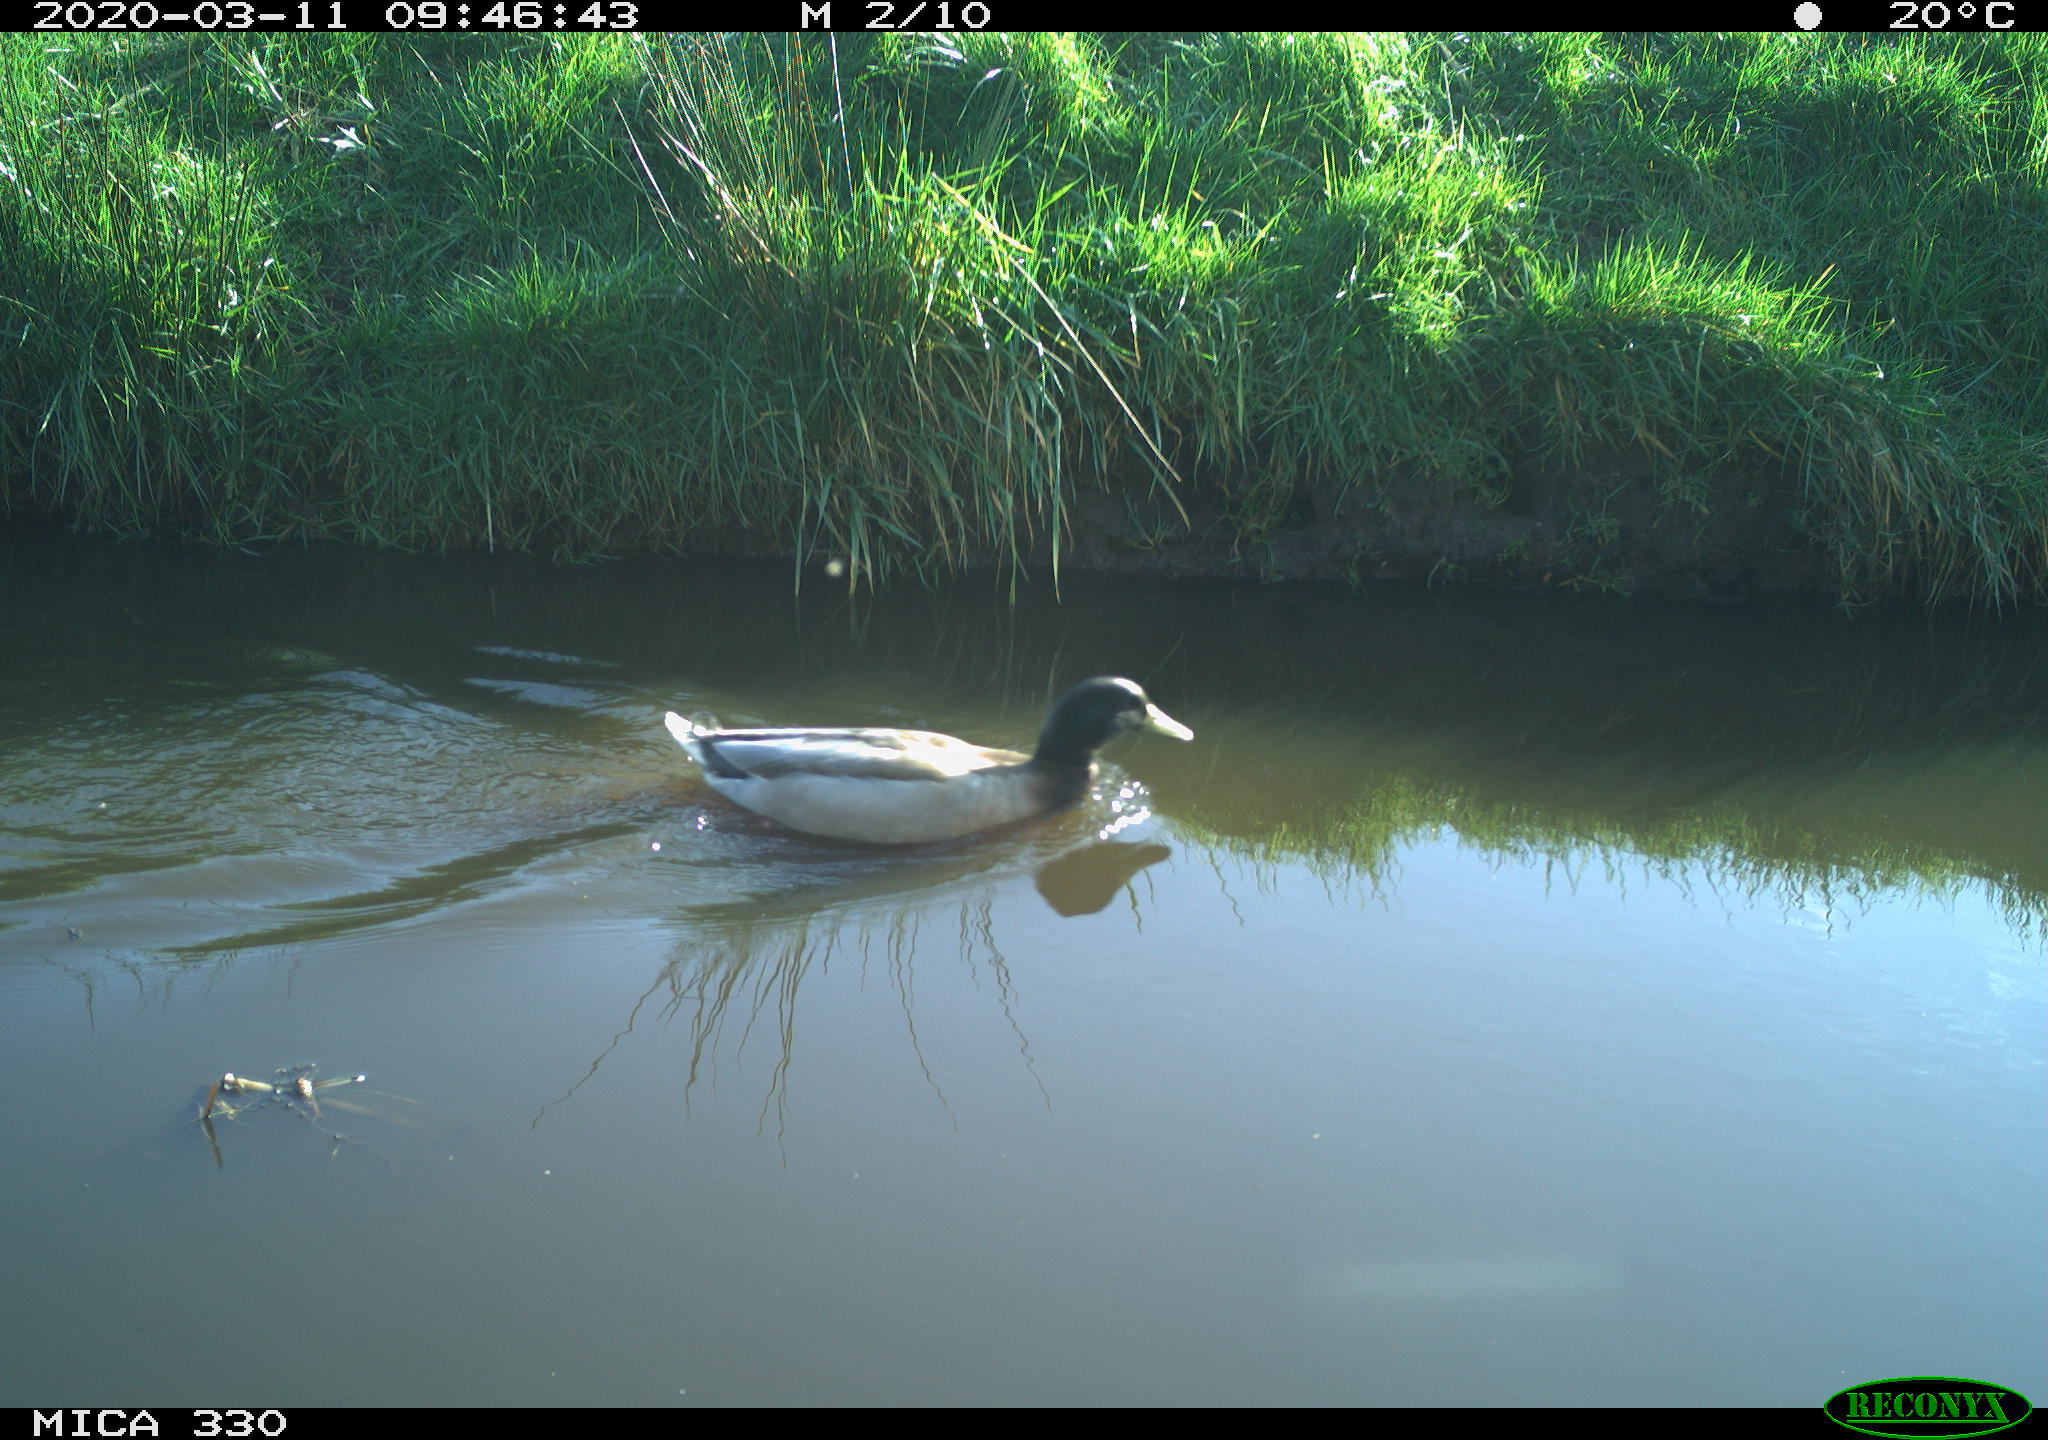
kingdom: Animalia
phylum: Chordata
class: Aves
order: Anseriformes
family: Anatidae
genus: Anas
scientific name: Anas platyrhynchos
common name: Mallard
